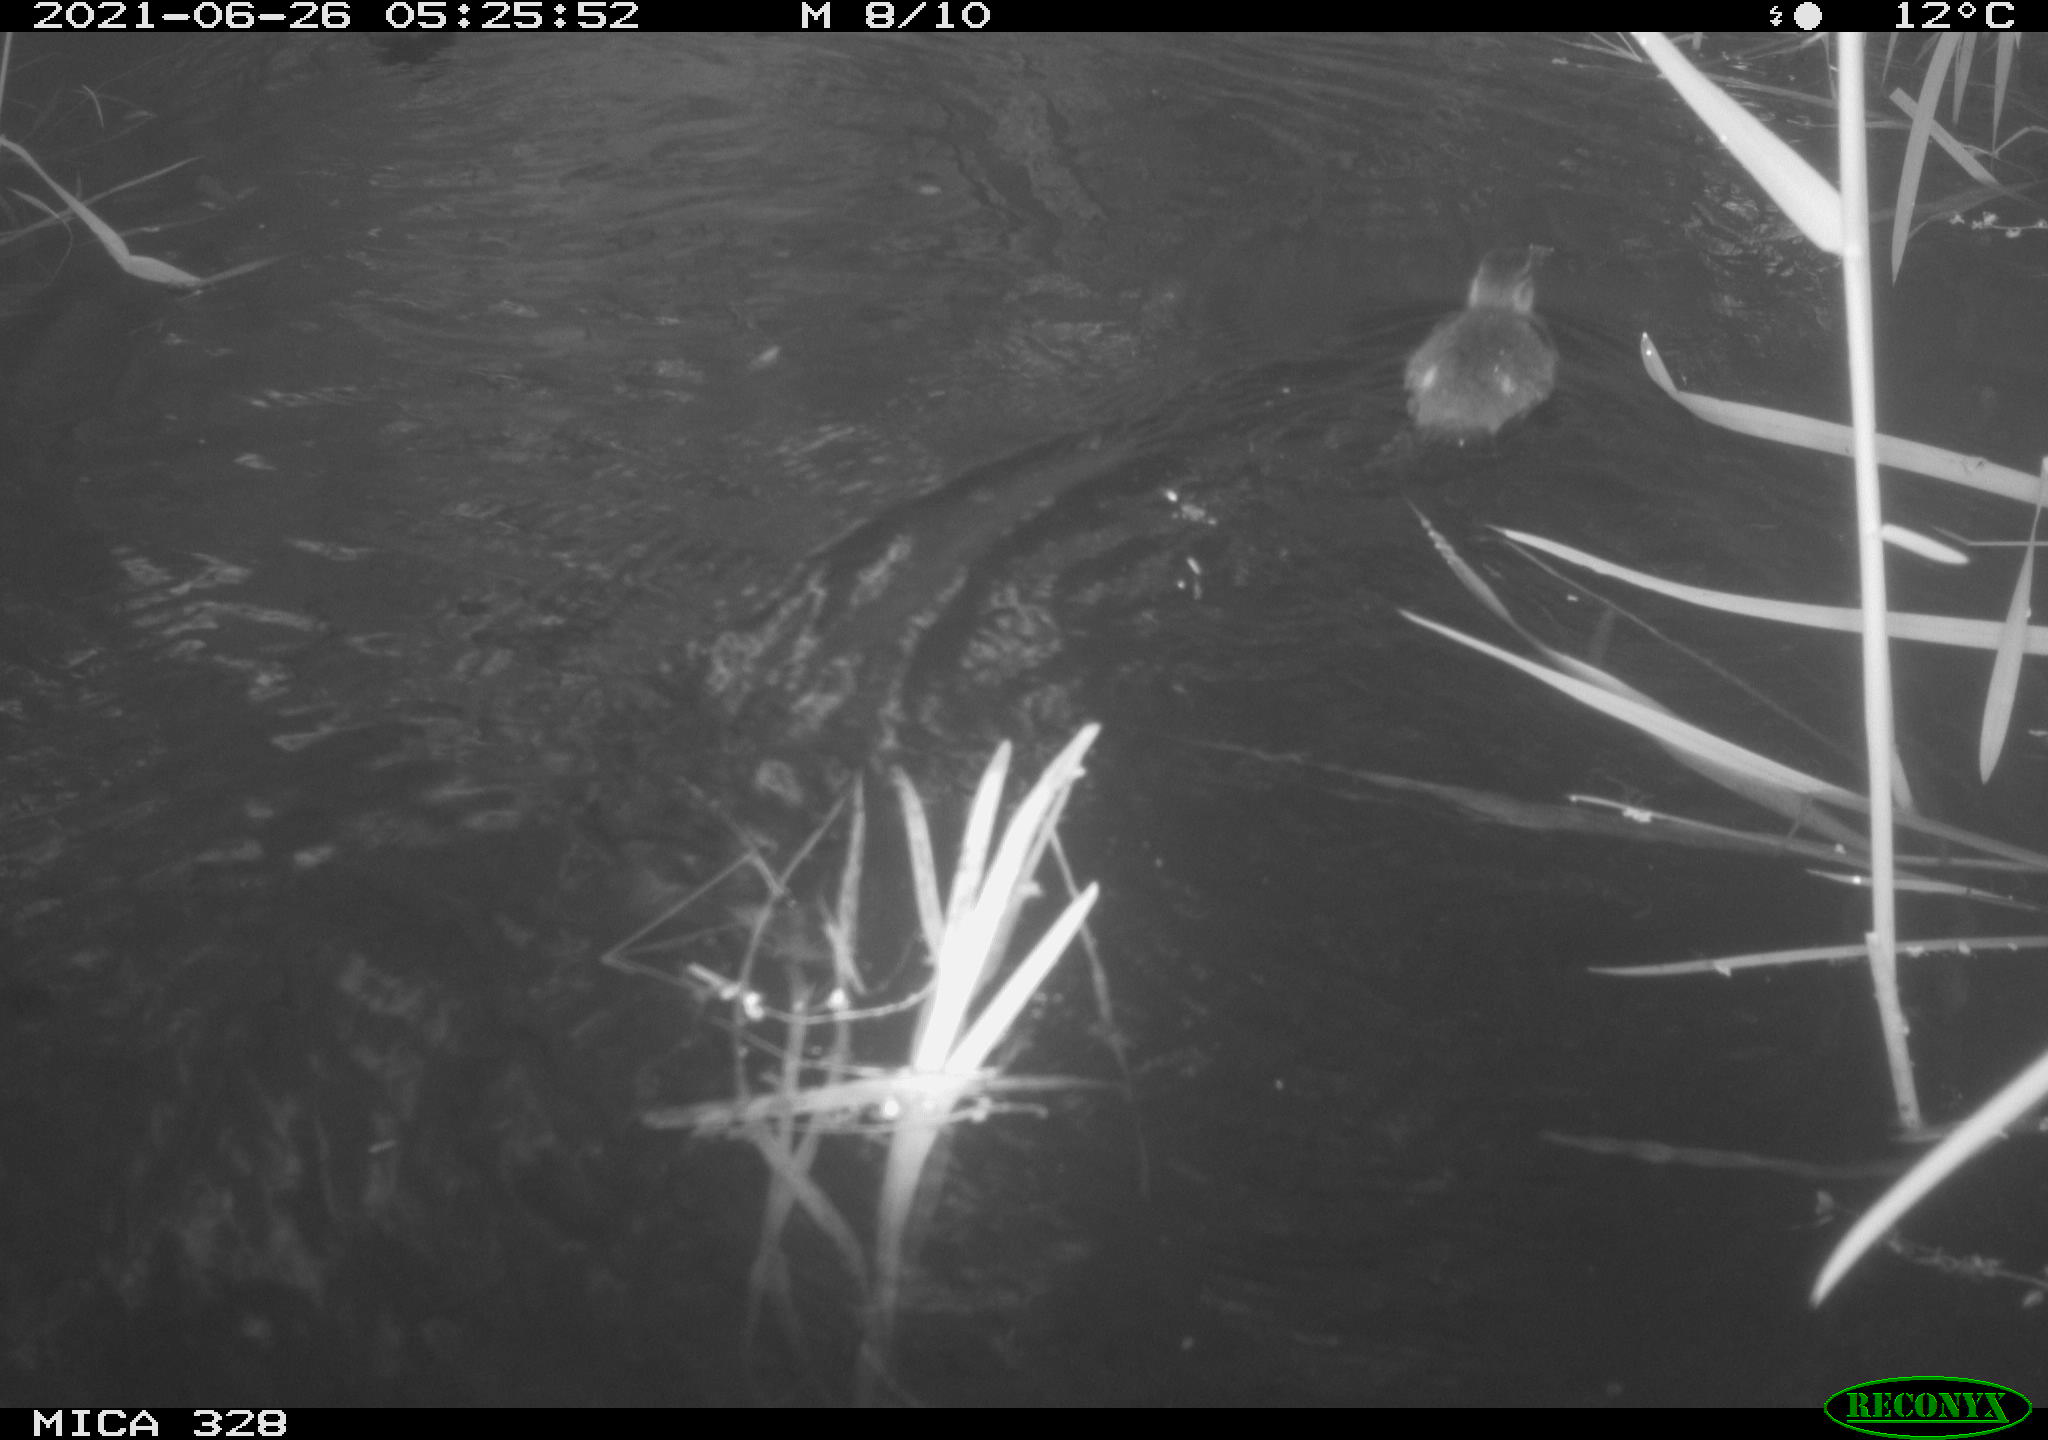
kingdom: Animalia
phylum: Chordata
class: Aves
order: Anseriformes
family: Anatidae
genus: Aix
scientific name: Aix galericulata
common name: Mandarin duck
